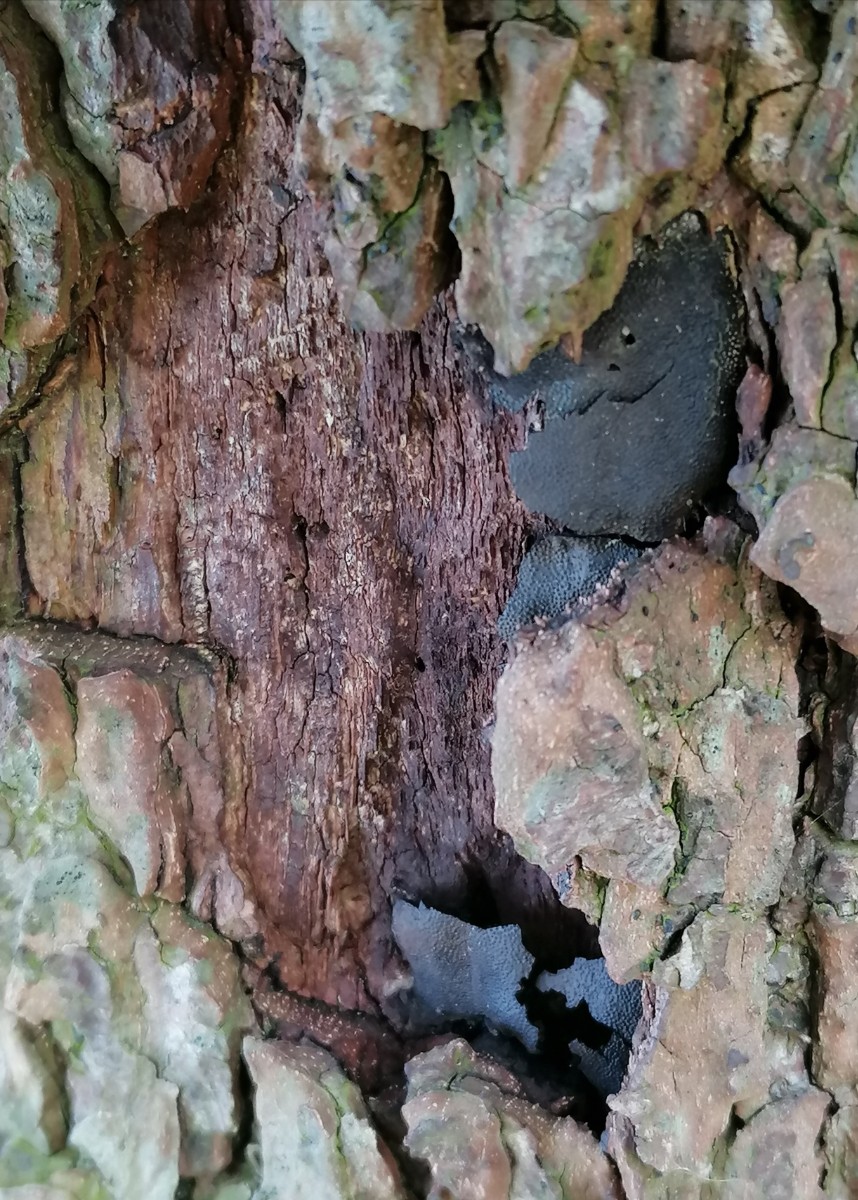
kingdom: Fungi
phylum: Ascomycota
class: Sordariomycetes
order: Boliniales
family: Boliniaceae
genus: Camarops
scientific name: Camarops polysperma
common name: elle-kulsnegl
